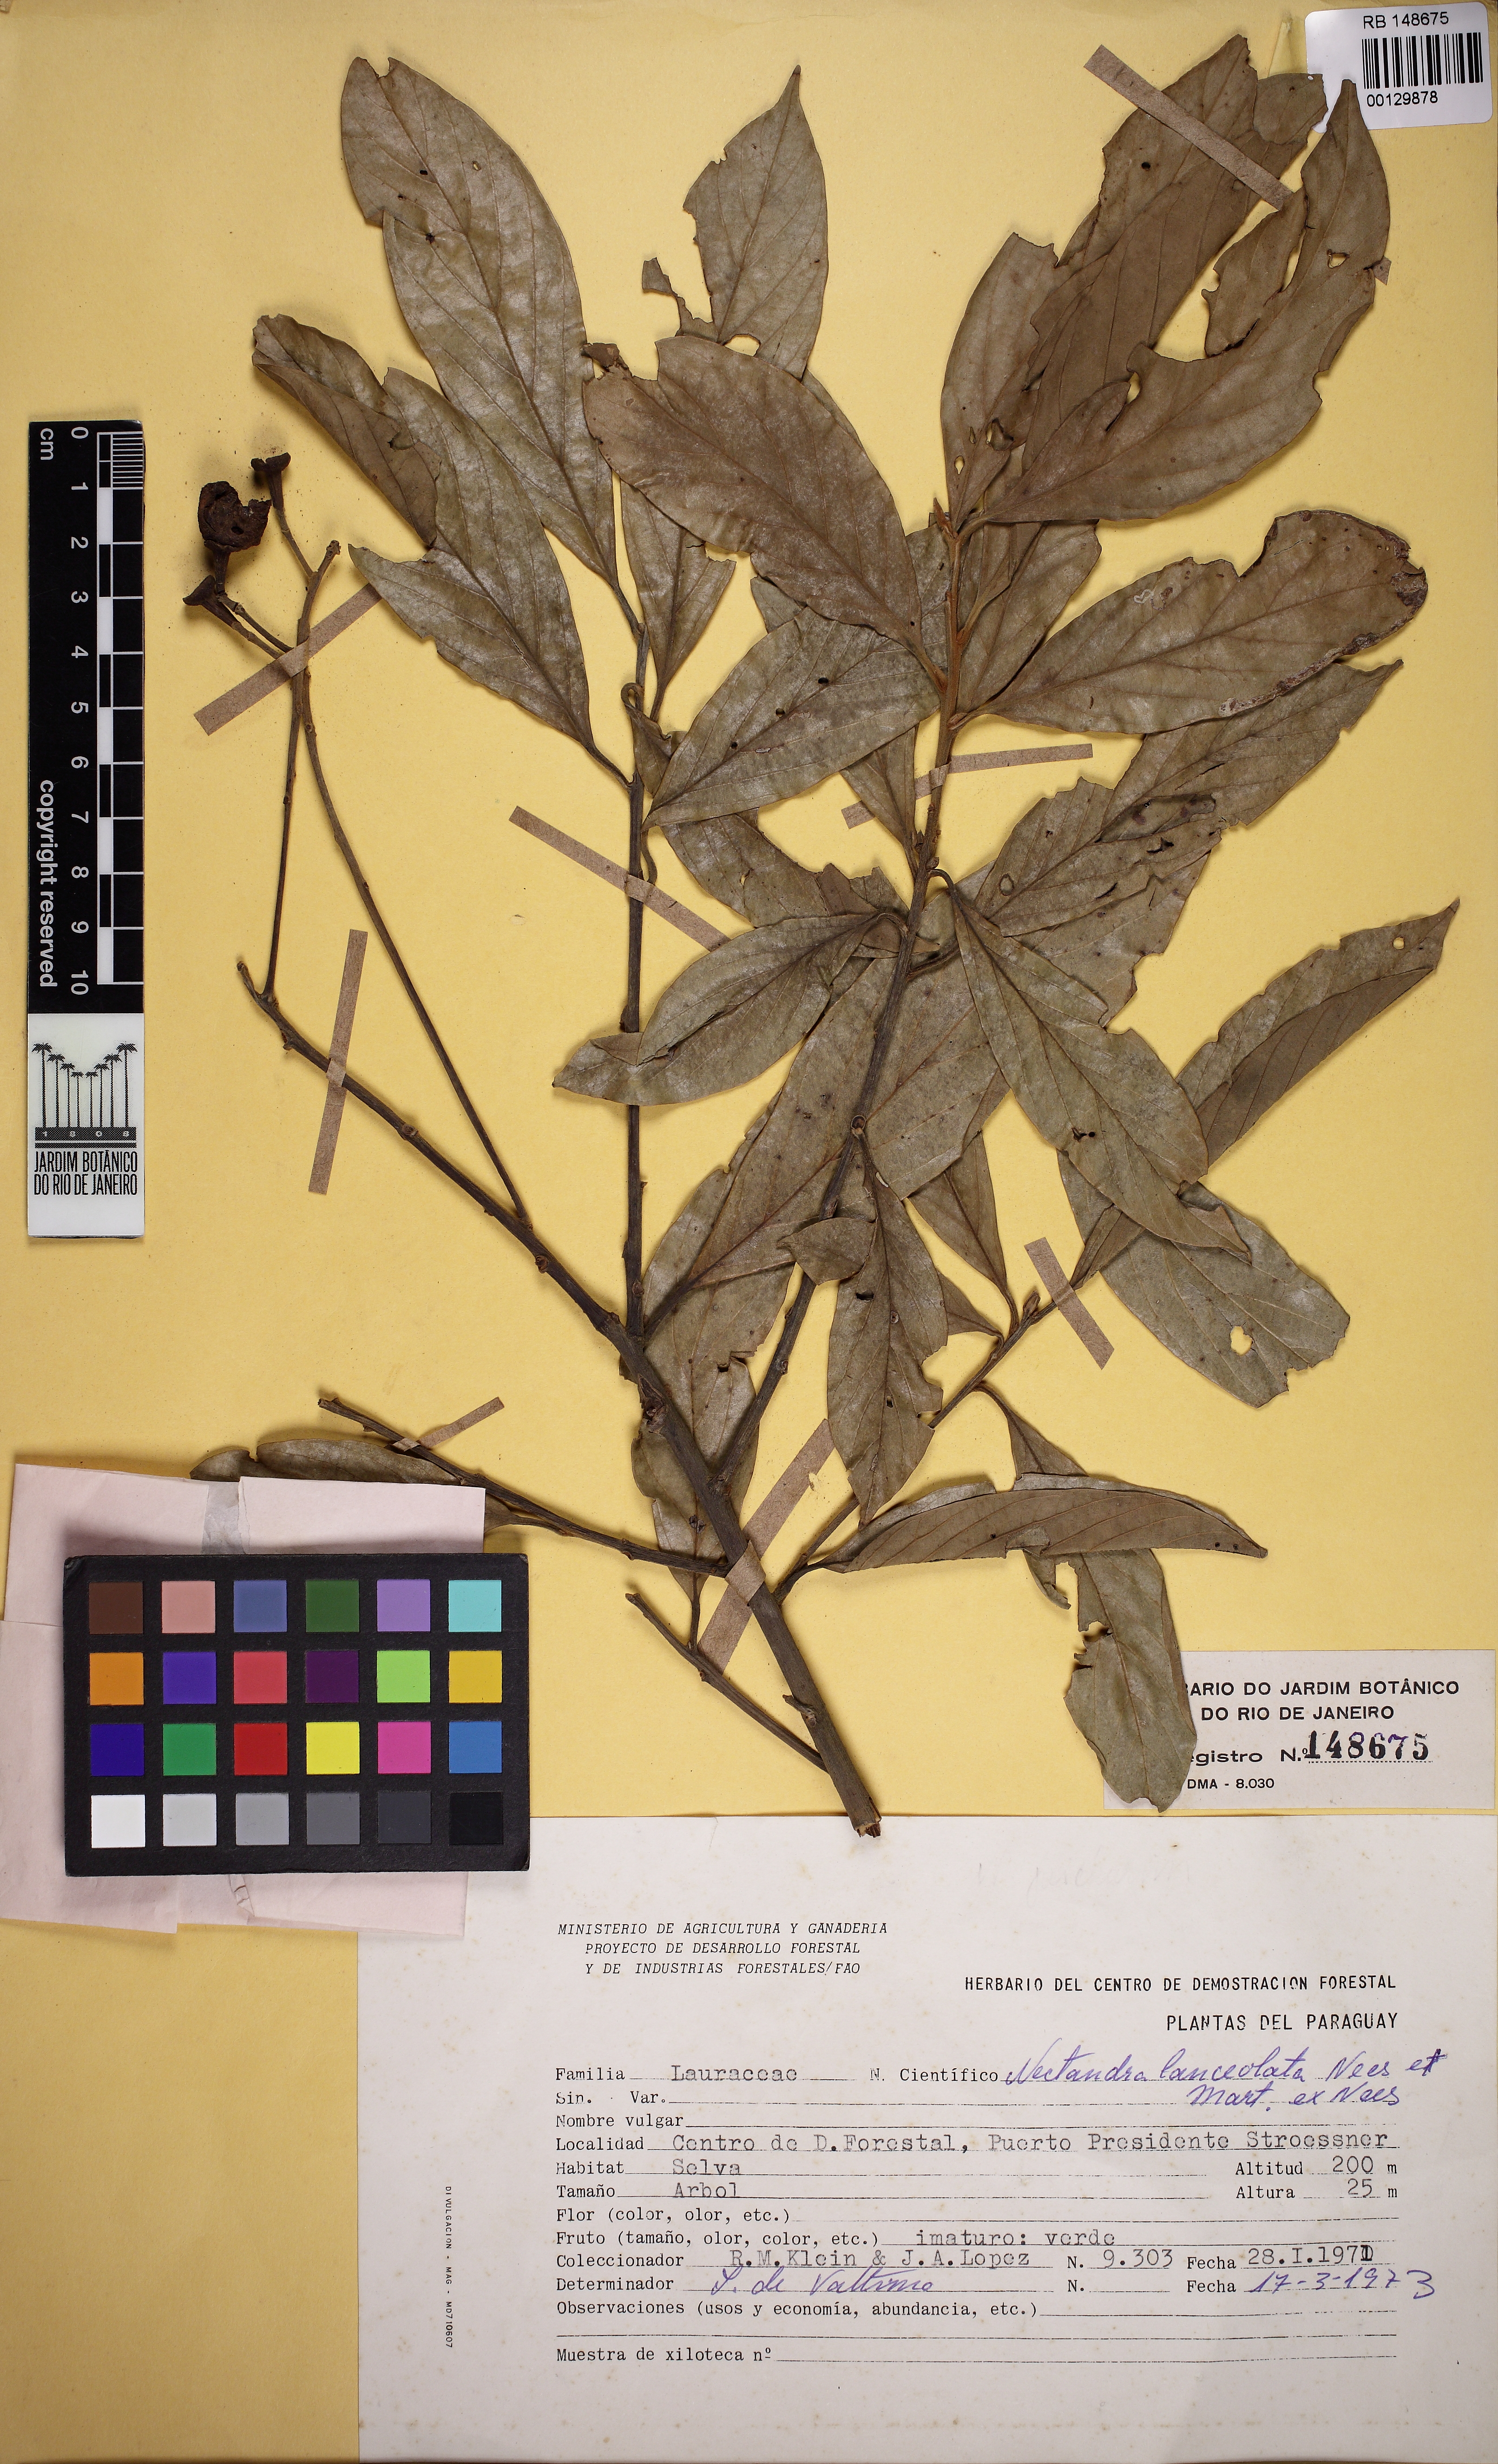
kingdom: Plantae
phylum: Tracheophyta
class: Magnoliopsida
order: Laurales
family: Lauraceae
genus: Nectandra
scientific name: Nectandra lanceolata
